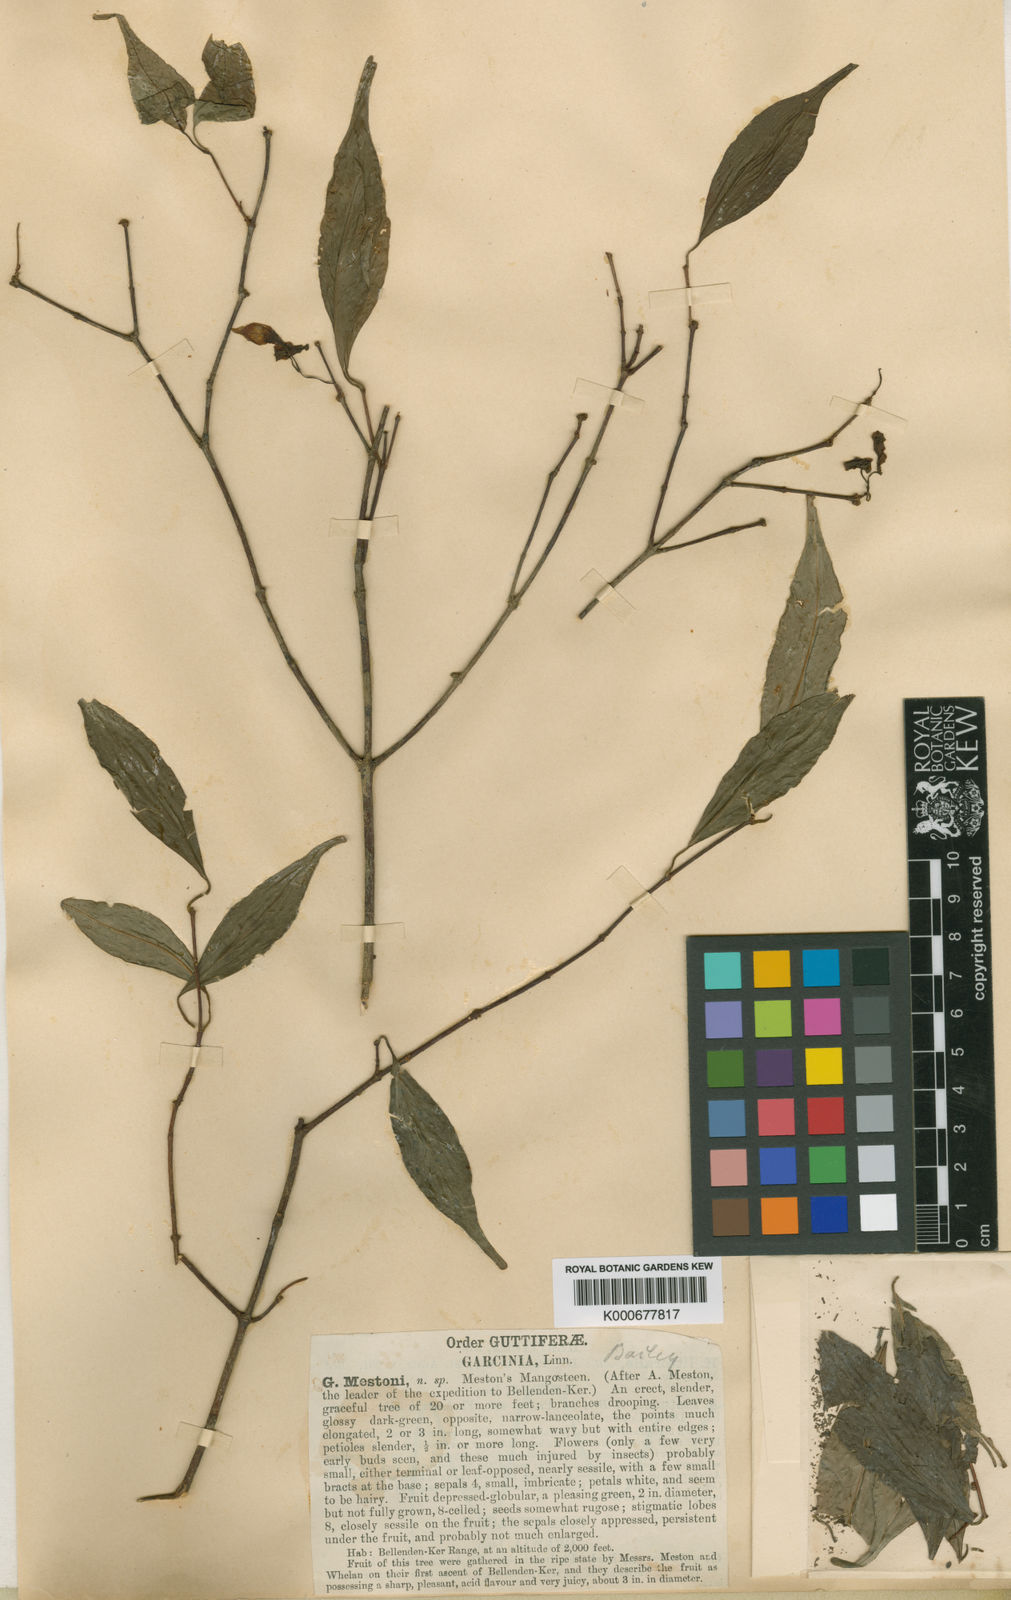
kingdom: Plantae
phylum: Tracheophyta
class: Magnoliopsida
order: Malpighiales
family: Clusiaceae
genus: Garcinia
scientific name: Garcinia mestonii
